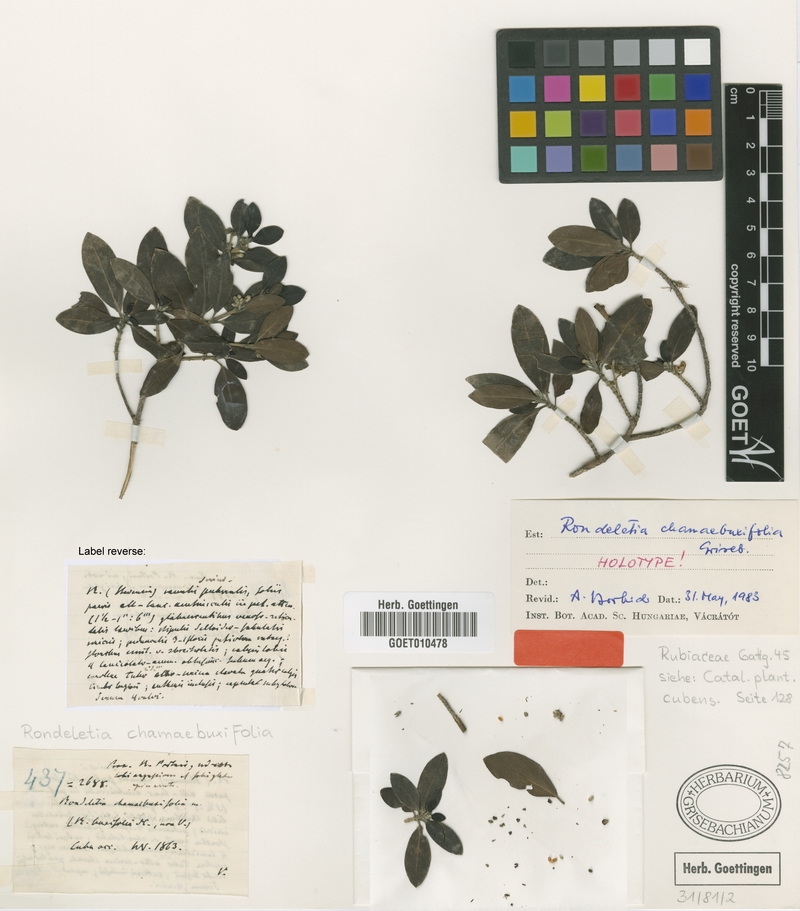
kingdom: Plantae
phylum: Tracheophyta
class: Magnoliopsida
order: Gentianales
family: Rubiaceae
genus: Rondeletia
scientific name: Rondeletia chamaebuxifolia
